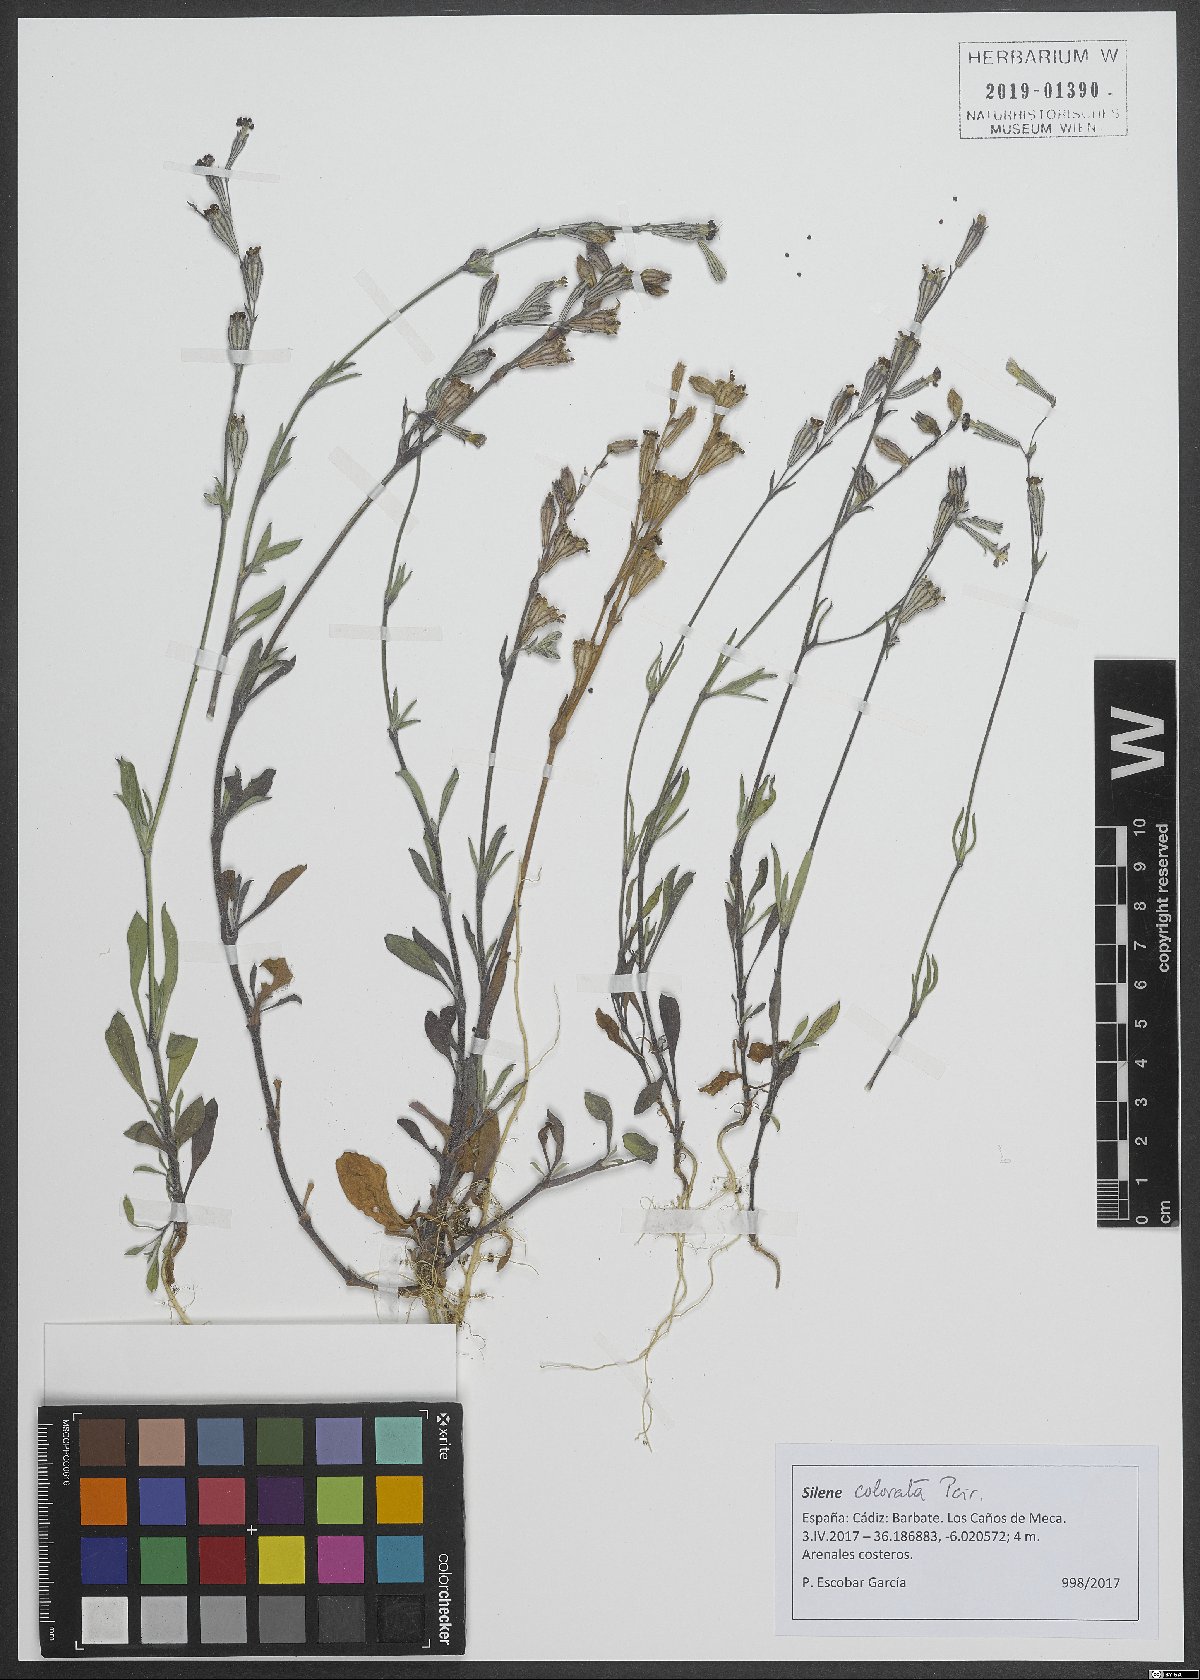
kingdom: Plantae
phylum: Tracheophyta
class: Magnoliopsida
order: Caryophyllales
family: Caryophyllaceae
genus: Silene
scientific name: Silene colorata
